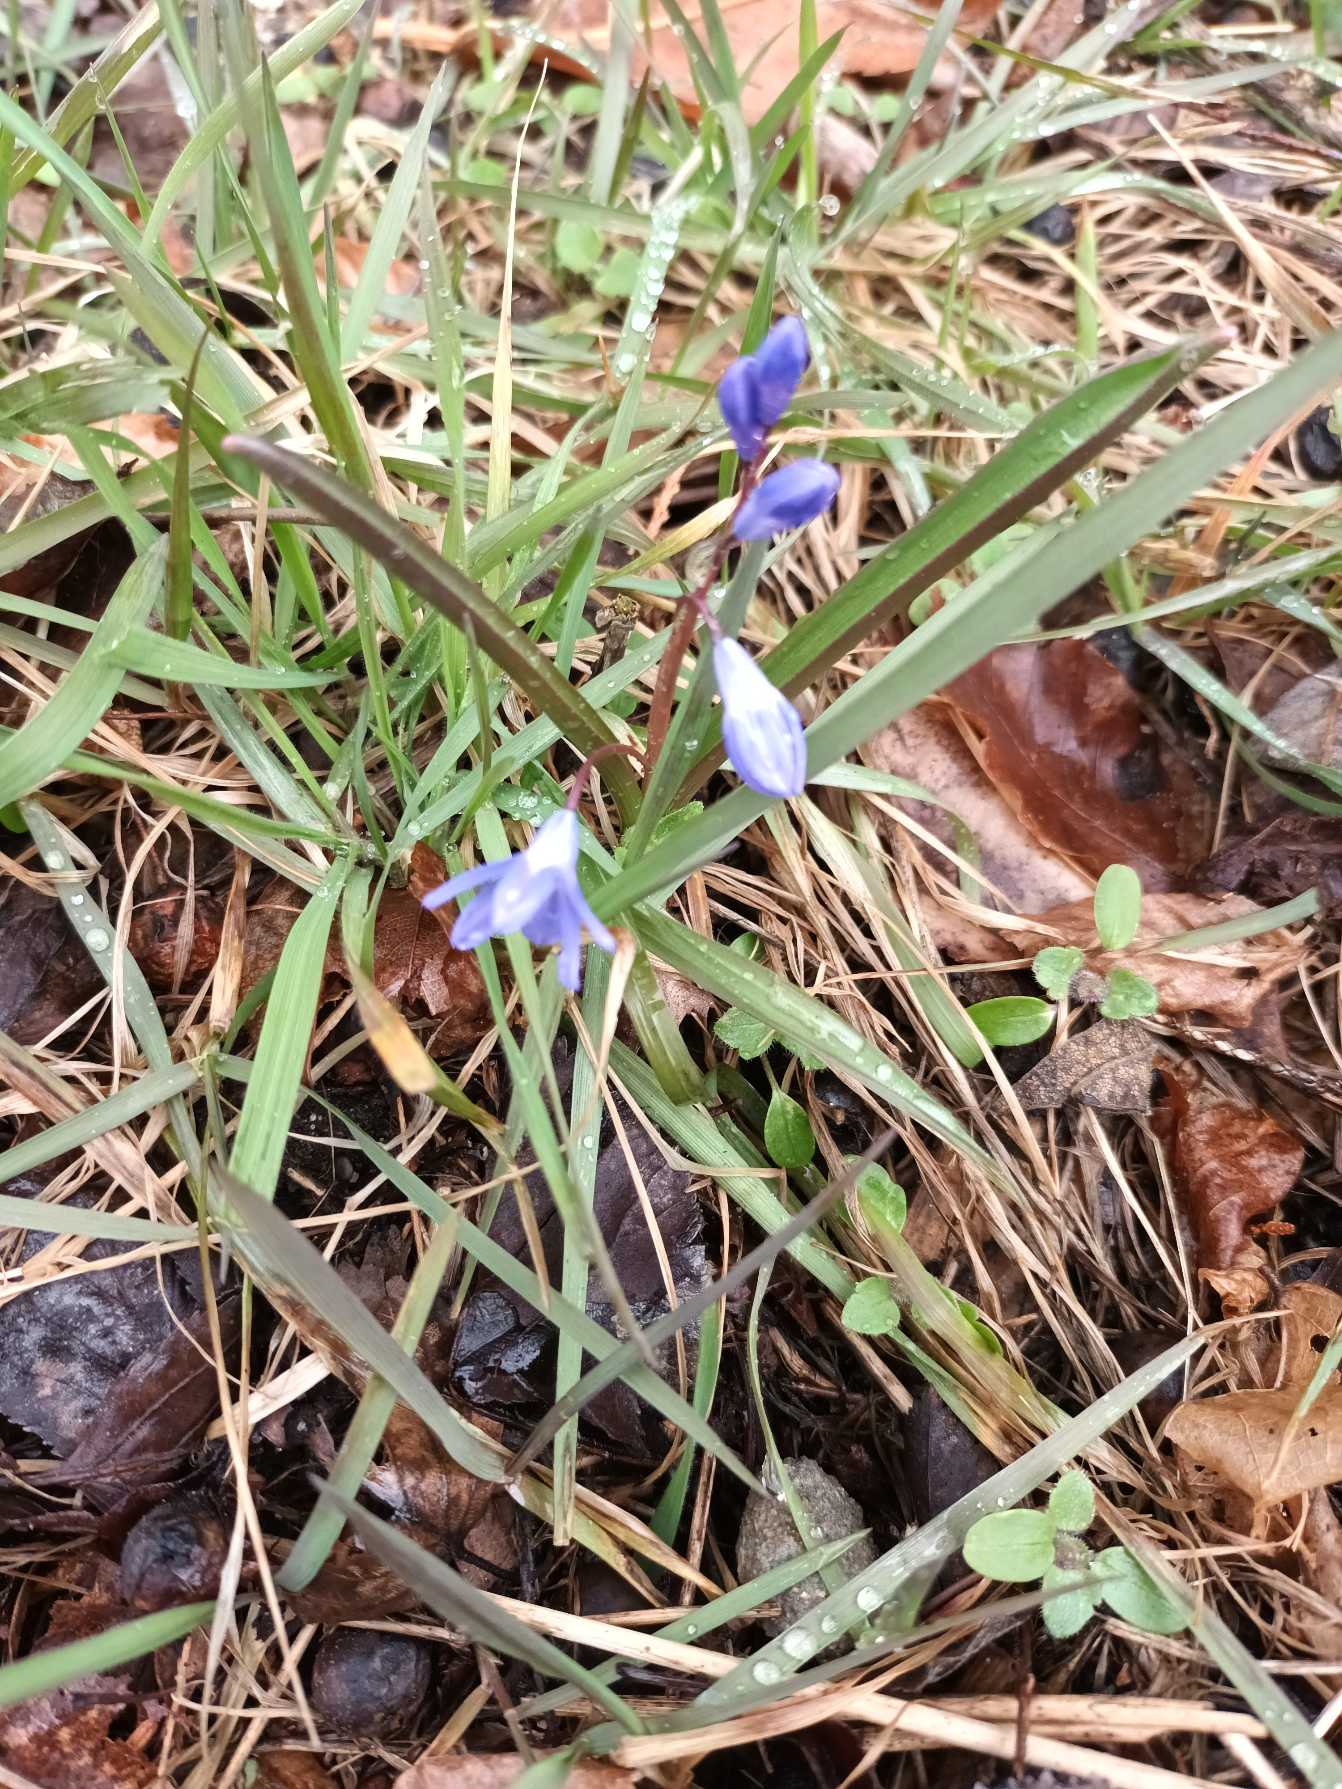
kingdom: Plantae
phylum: Tracheophyta
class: Liliopsida
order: Asparagales
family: Asparagaceae
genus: Scilla
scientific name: Scilla sardensis
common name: Liden snepryd
